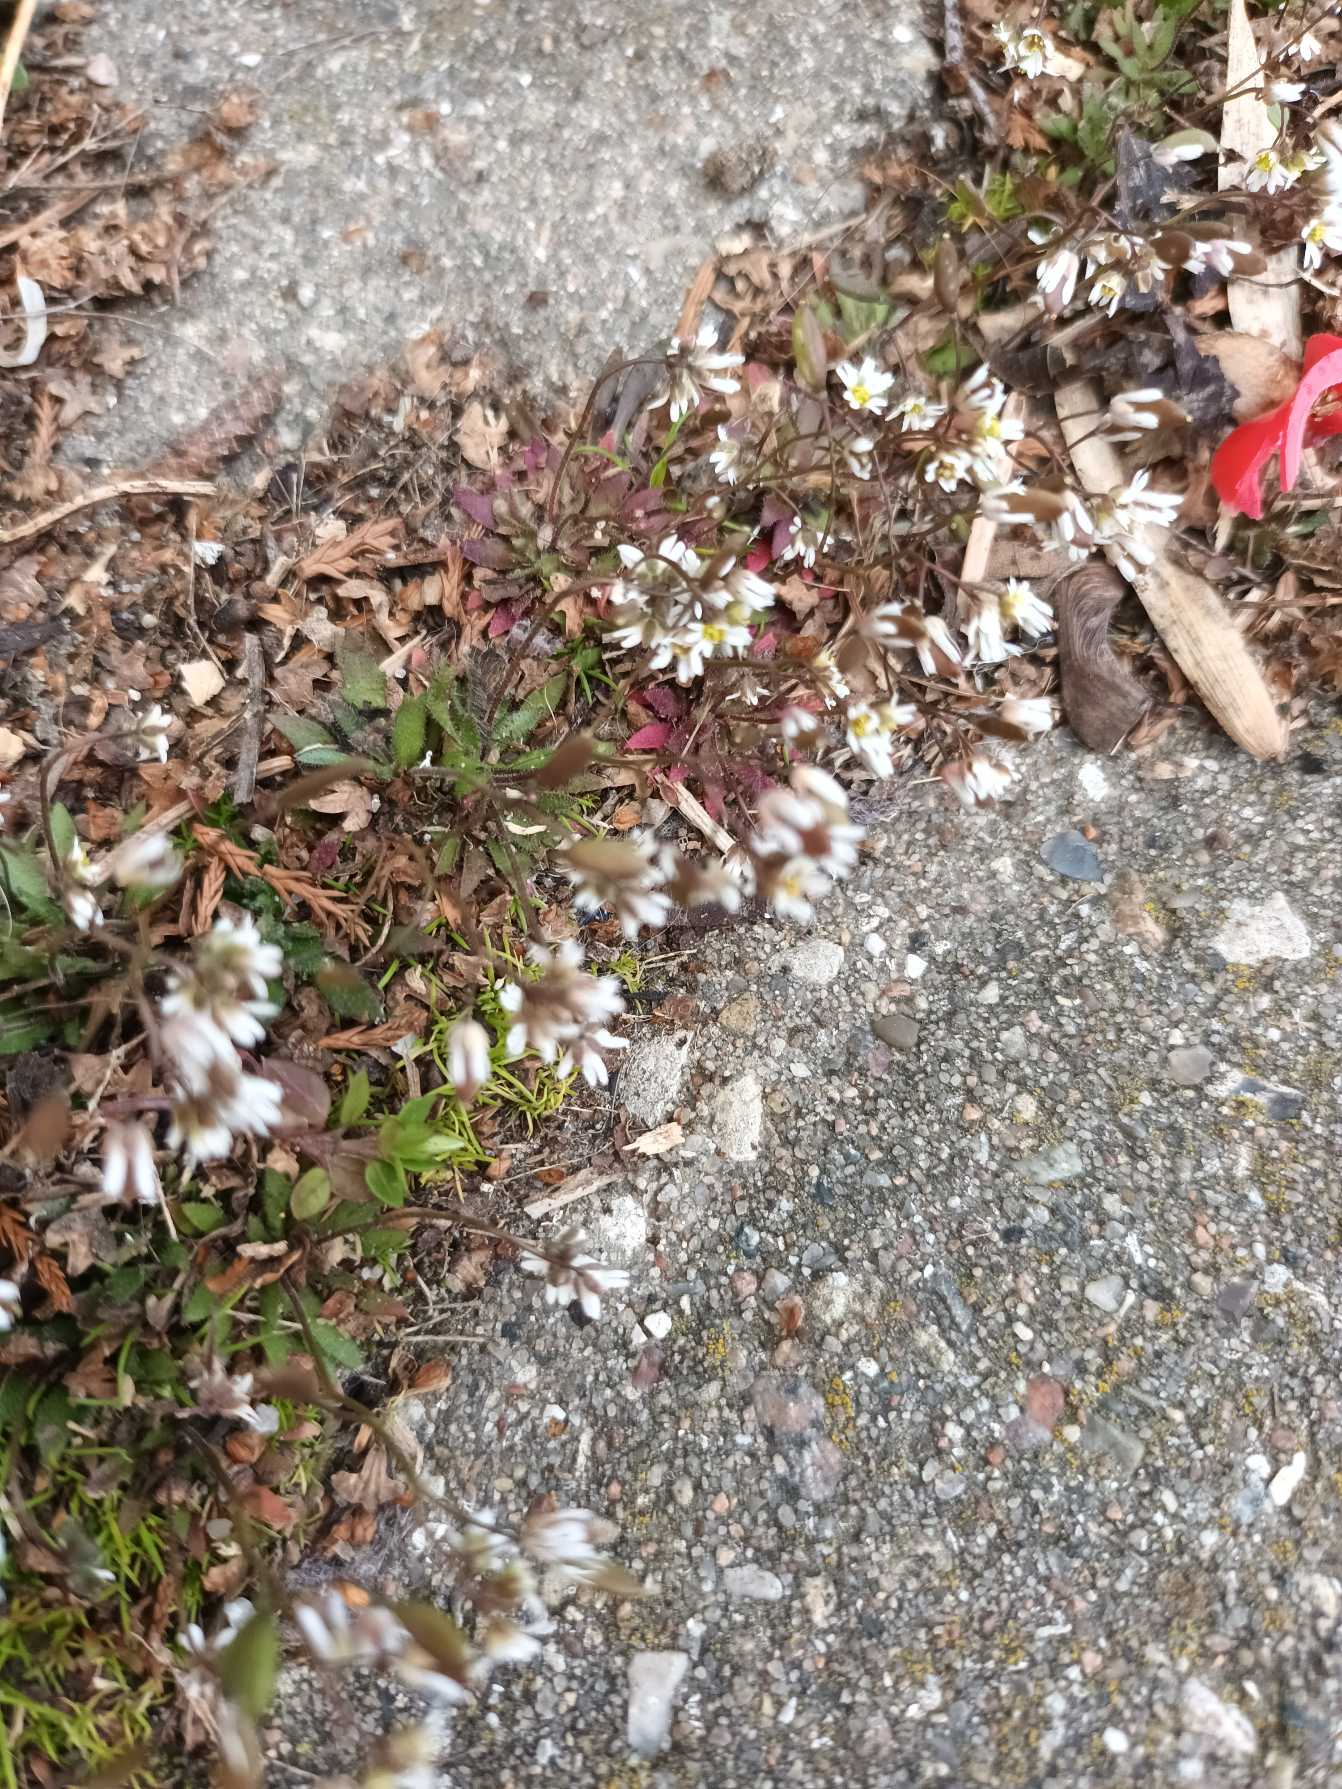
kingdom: Plantae
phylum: Tracheophyta
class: Magnoliopsida
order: Brassicales
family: Brassicaceae
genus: Draba
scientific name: Draba verna
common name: Vår-gæslingeblomst
